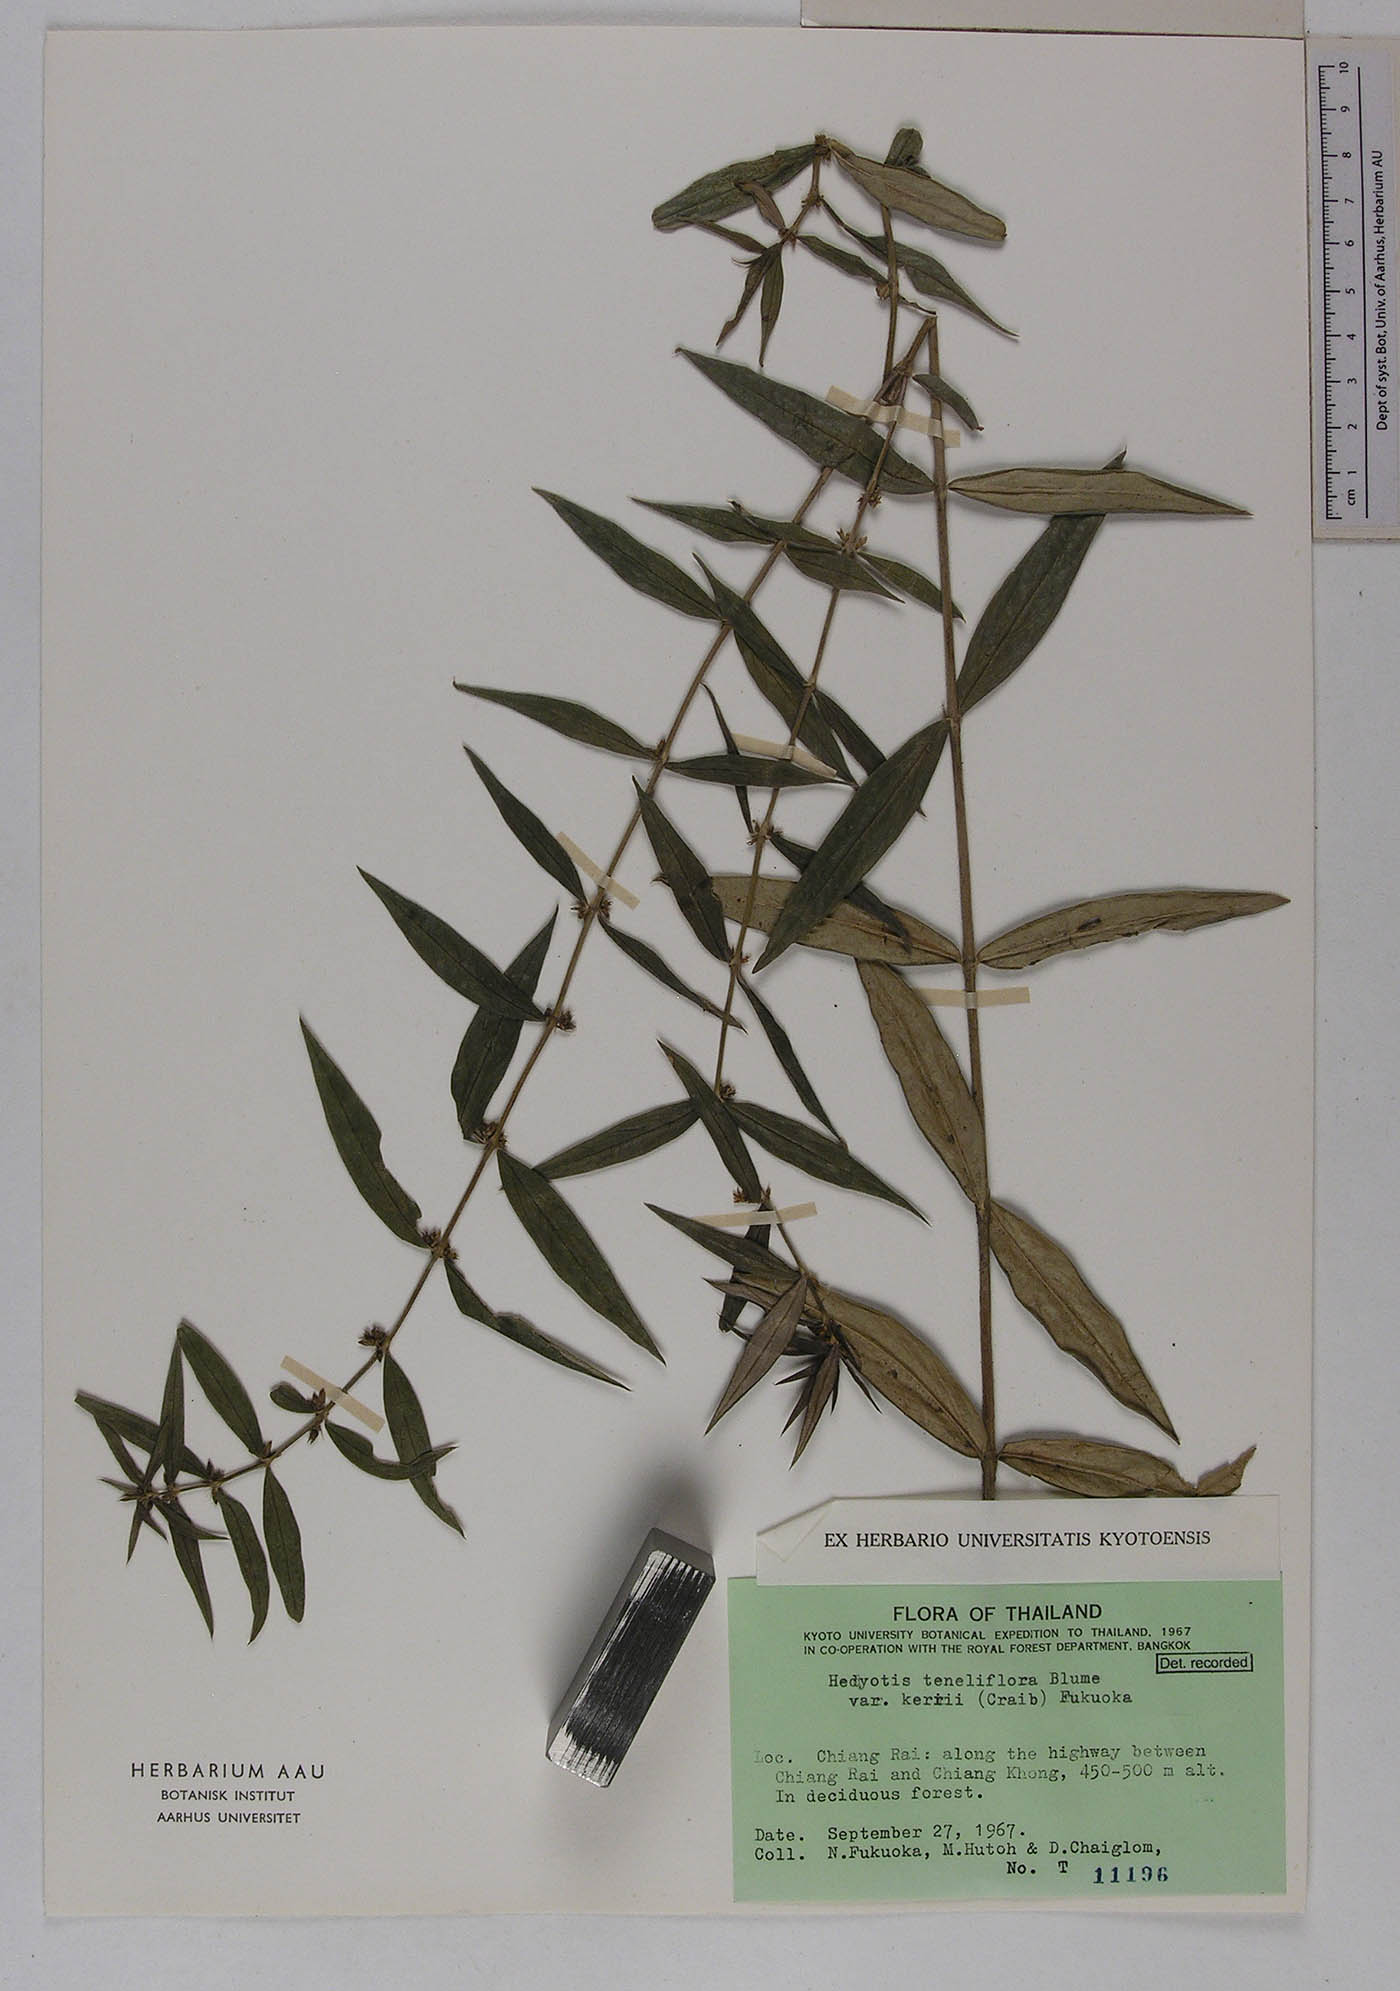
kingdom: Plantae
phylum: Tracheophyta
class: Magnoliopsida
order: Gentianales
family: Rubiaceae
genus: Scleromitrion
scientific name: Scleromitrion tenelliflorum
